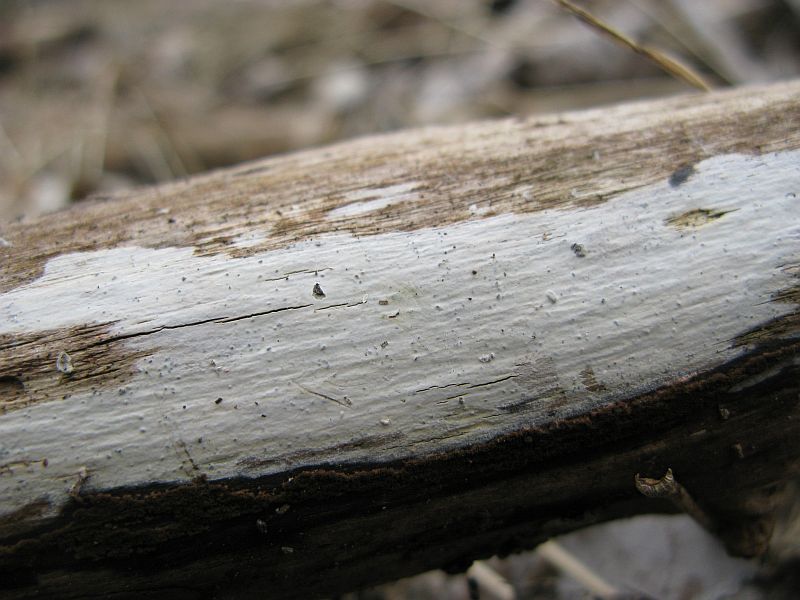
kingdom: Fungi
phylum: Basidiomycota
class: Agaricomycetes
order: Russulales
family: Stereaceae
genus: Gloeocystidiellum
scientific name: Gloeocystidiellum luridum
